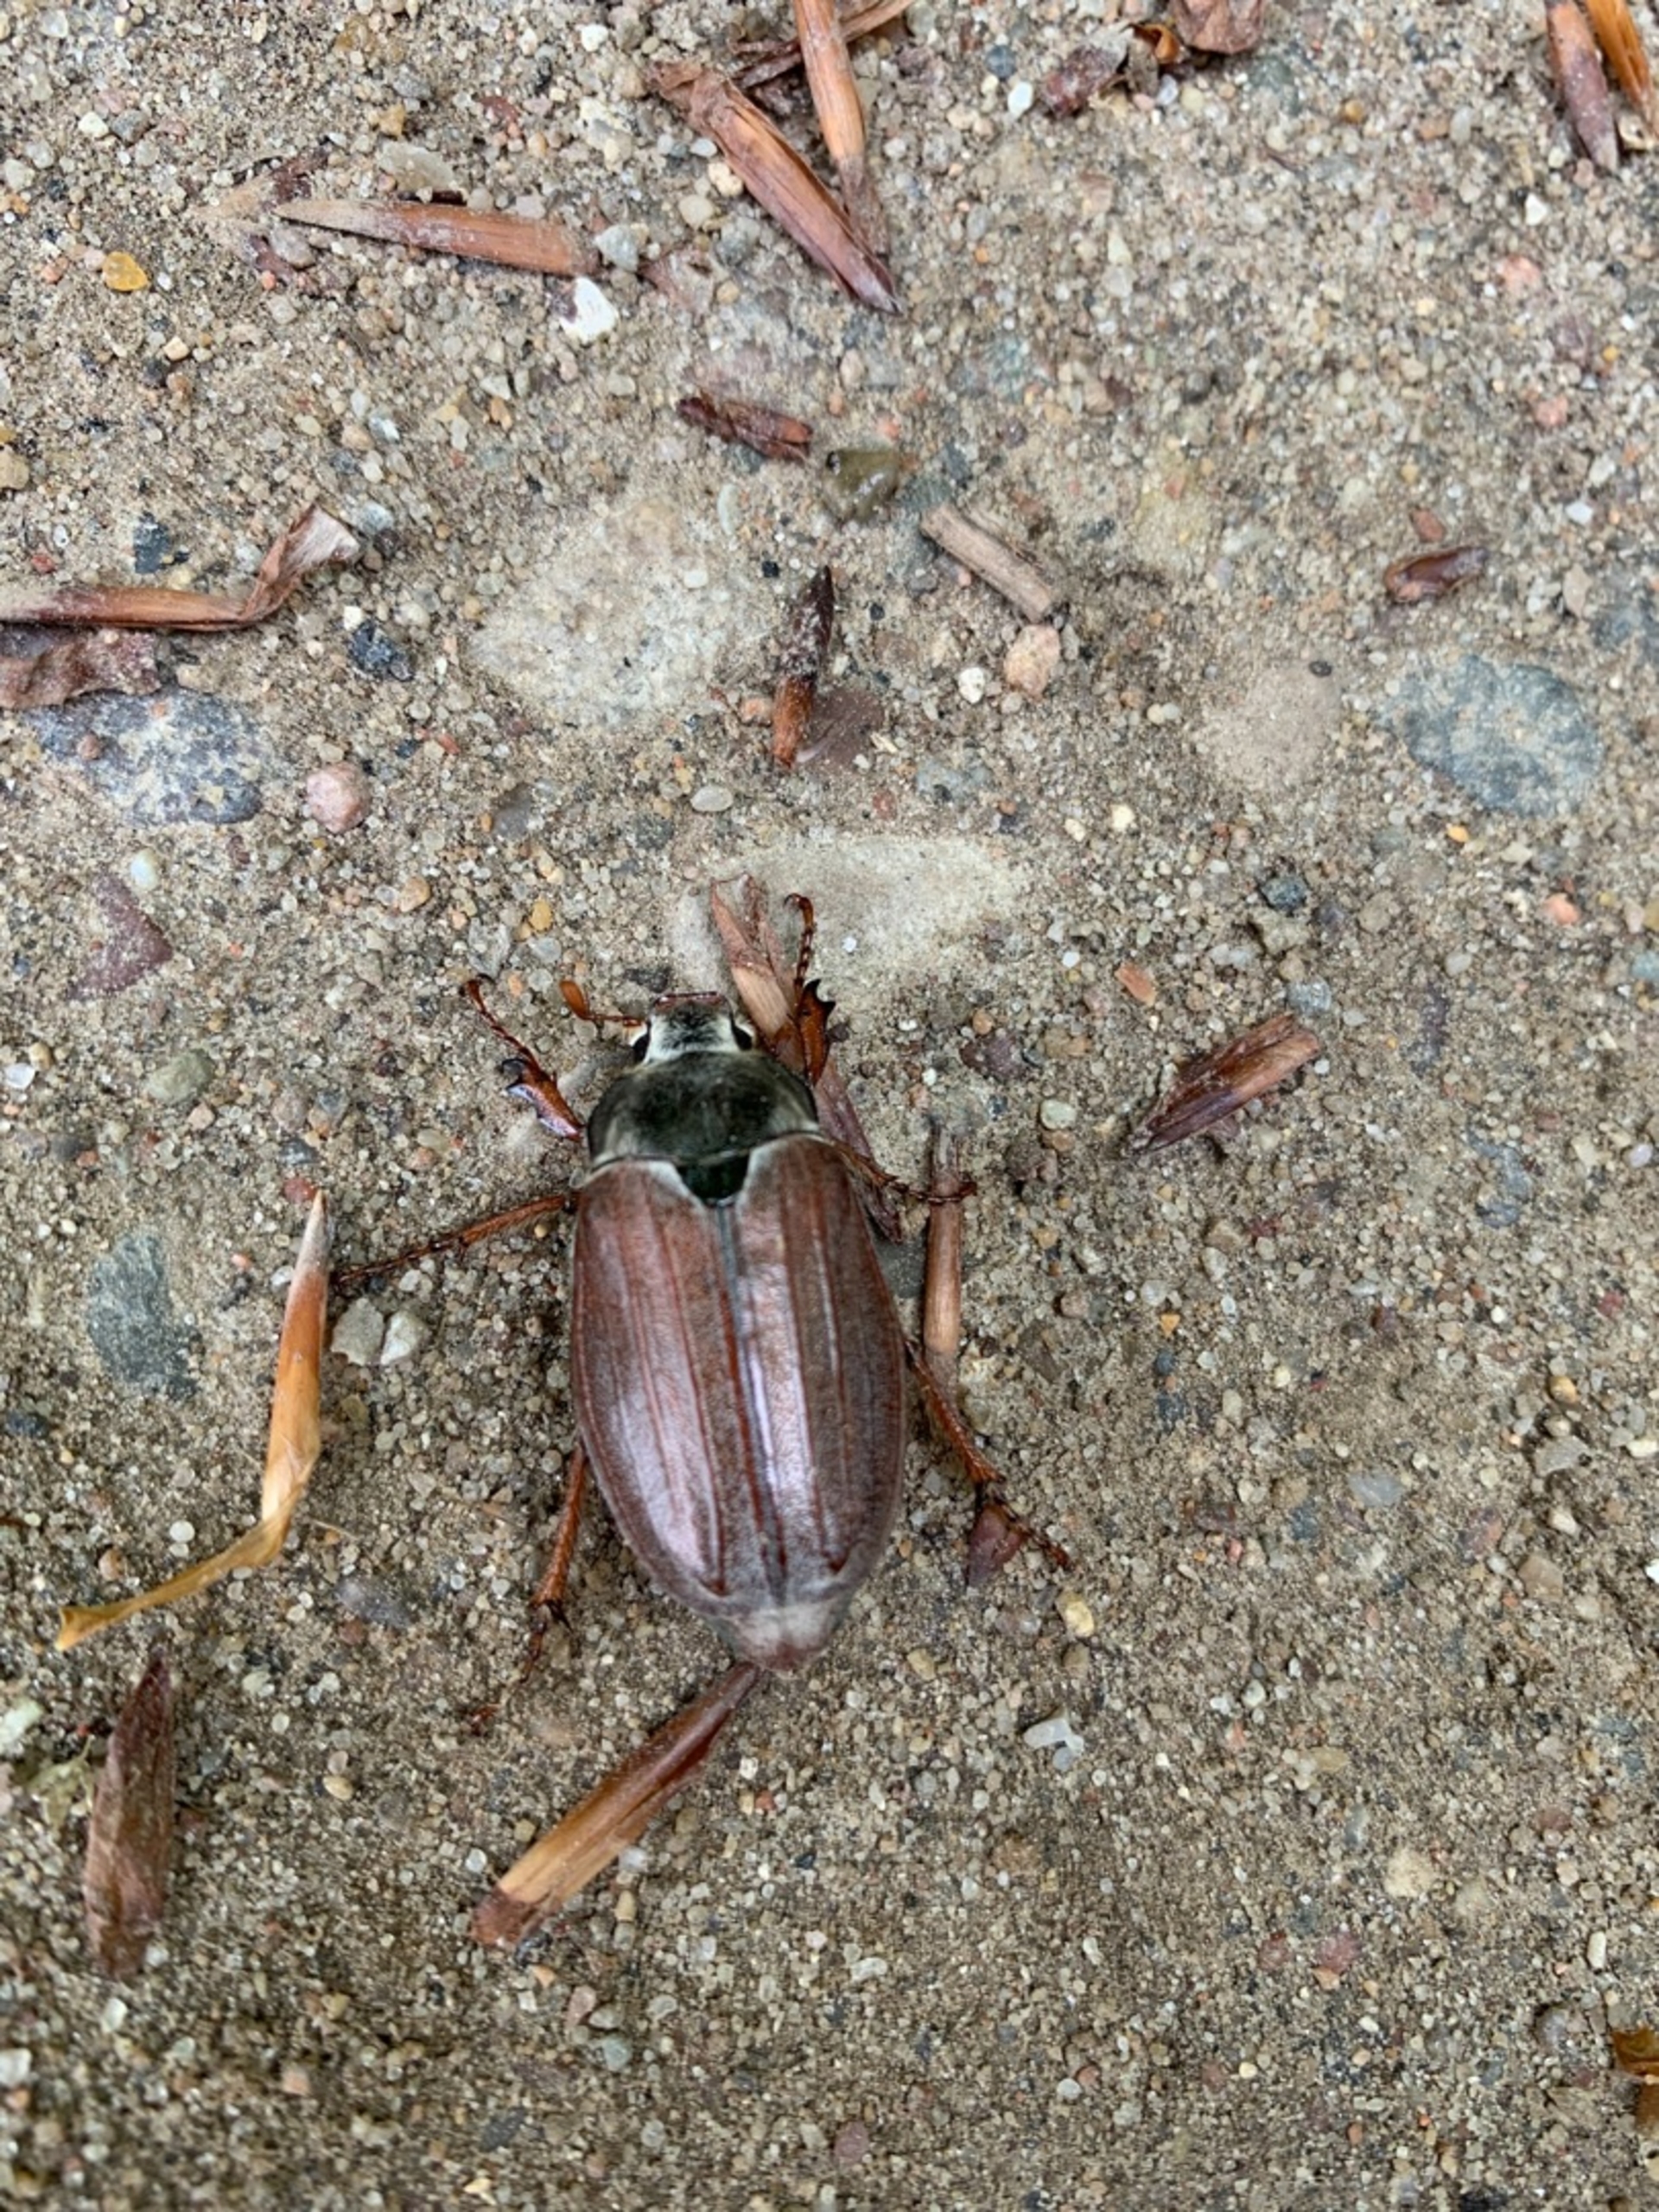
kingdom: Animalia
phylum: Arthropoda
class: Insecta
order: Coleoptera
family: Scarabaeidae
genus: Melolontha
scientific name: Melolontha melolontha
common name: Almindelig oldenborre
